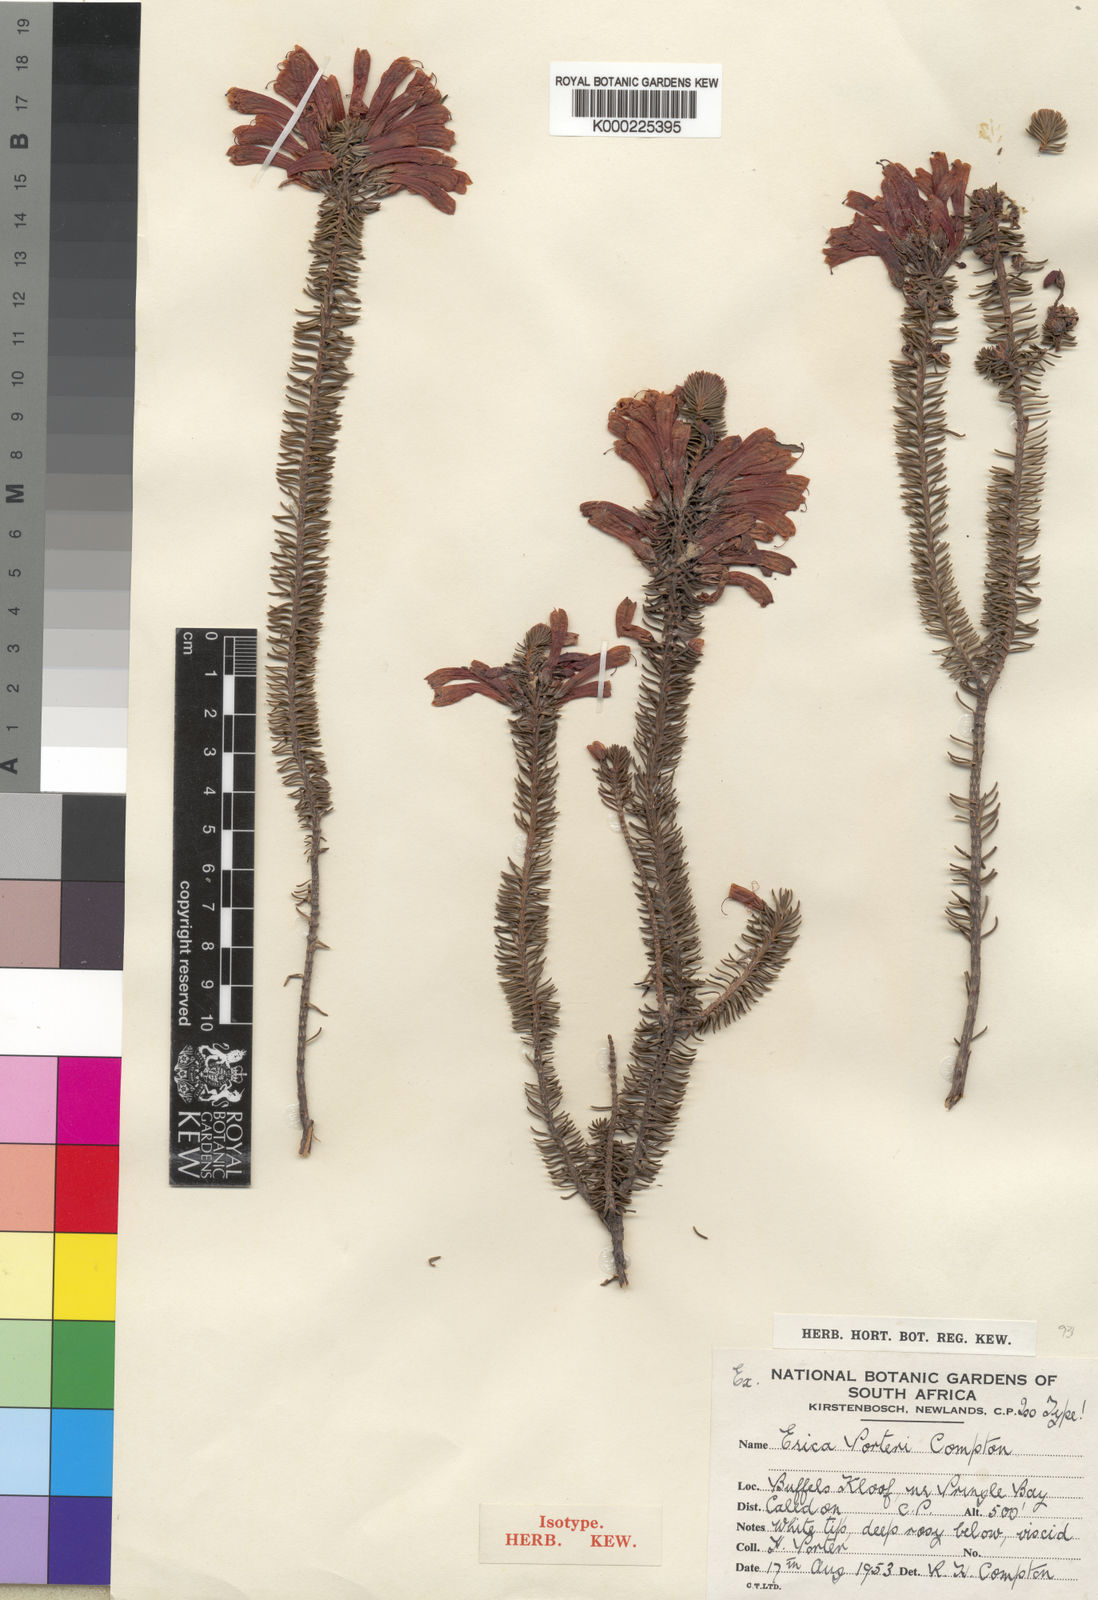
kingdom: Plantae
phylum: Tracheophyta
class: Magnoliopsida
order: Ericales
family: Ericaceae
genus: Erica
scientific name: Erica thomae
